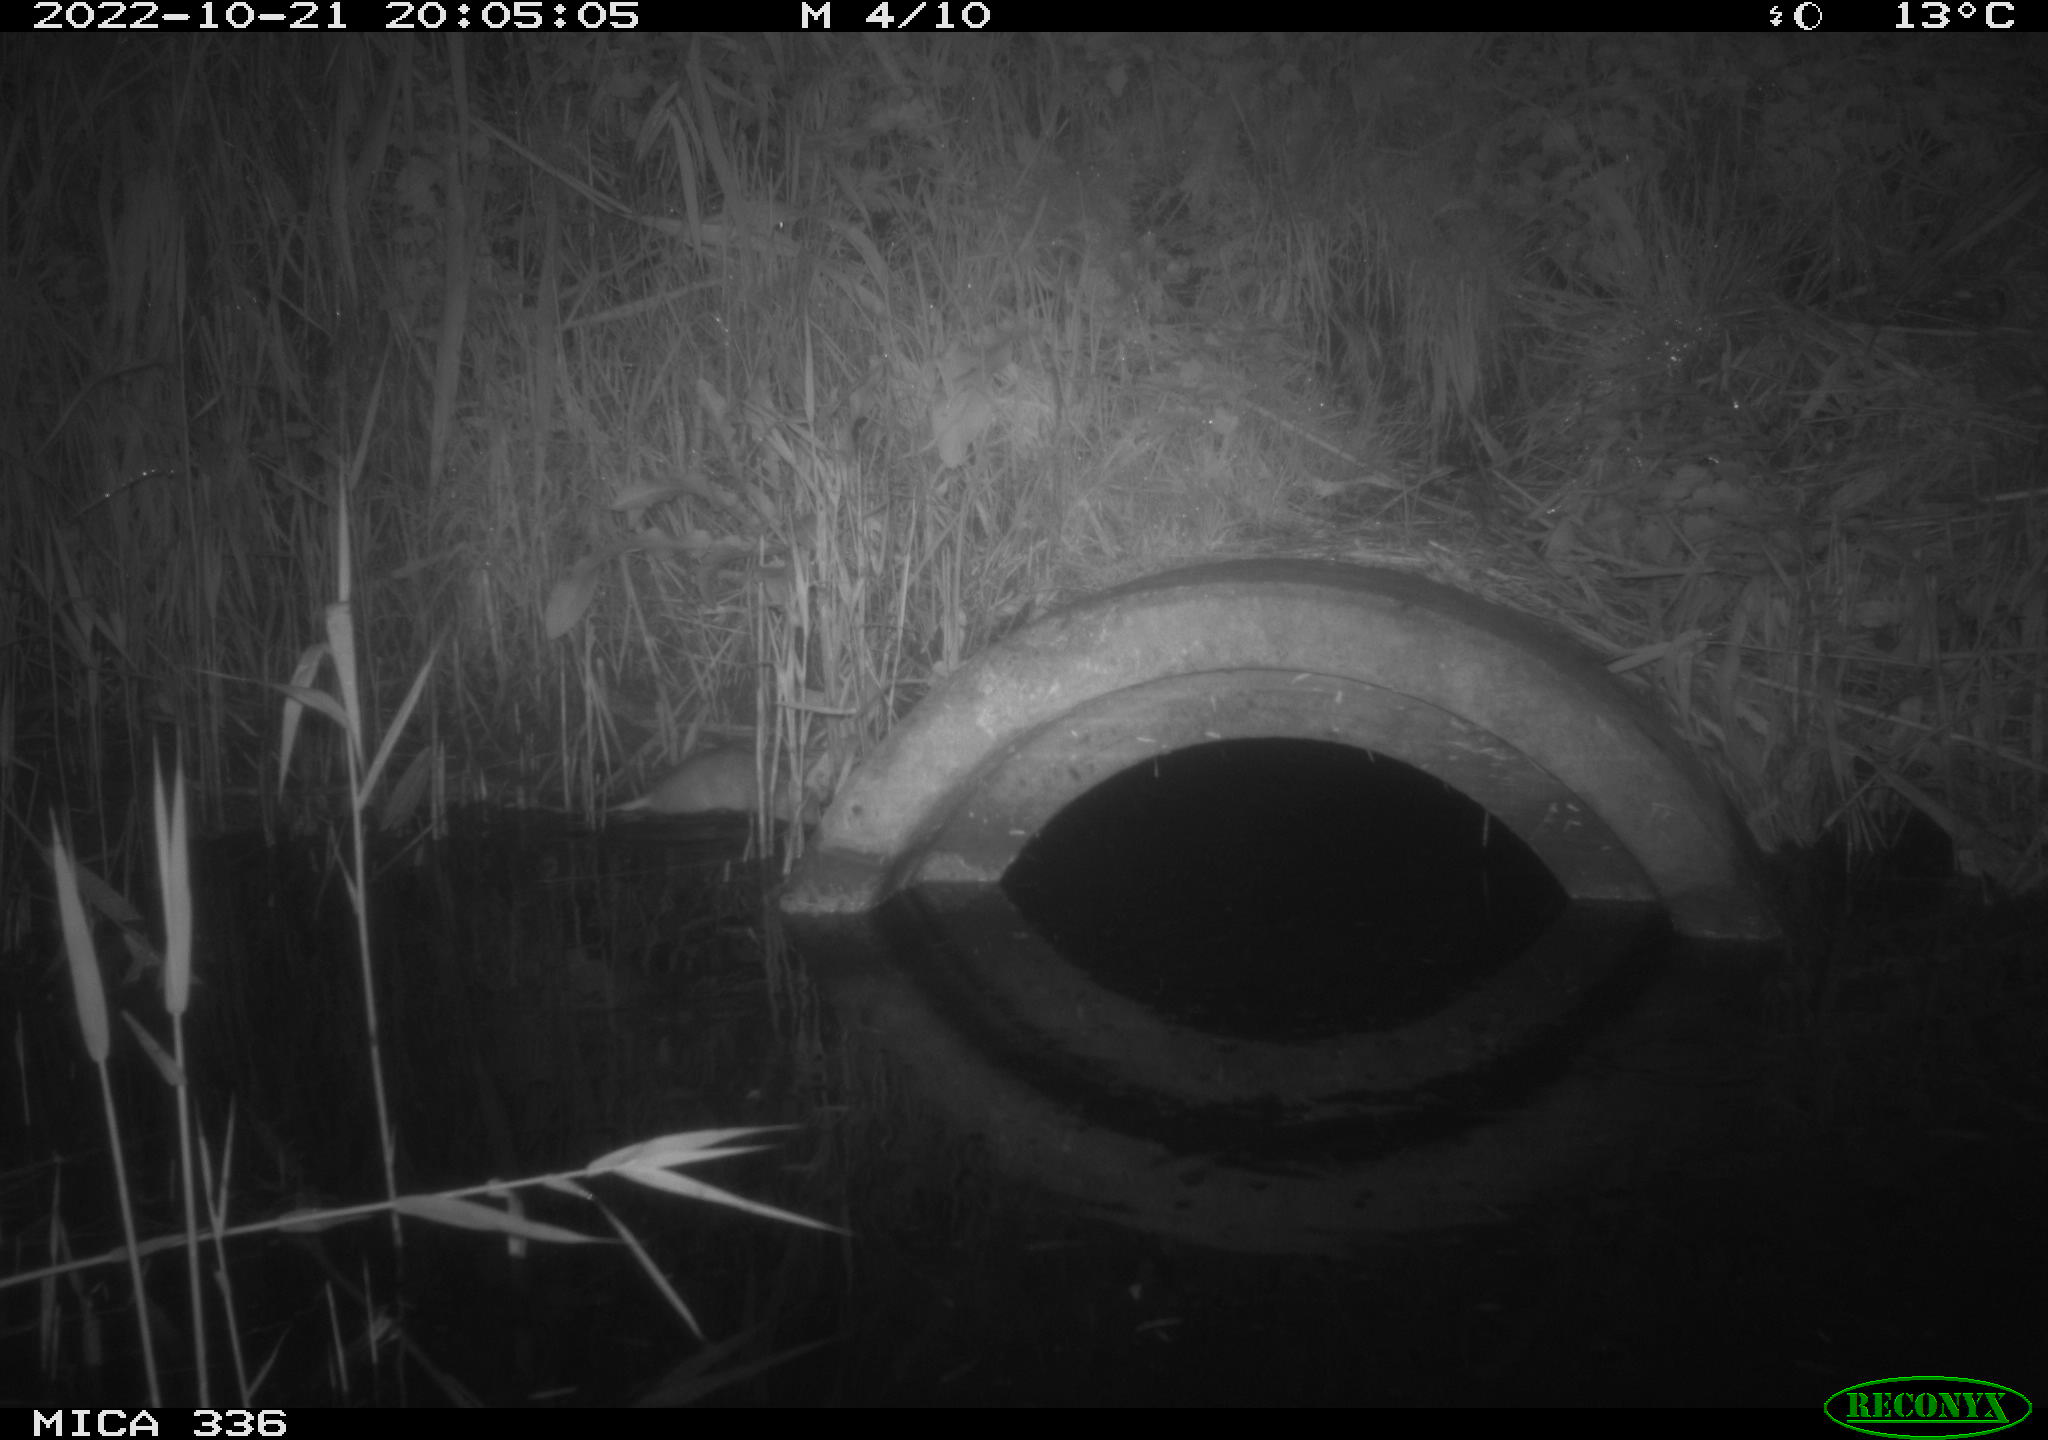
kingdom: Animalia
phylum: Chordata
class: Mammalia
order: Rodentia
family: Muridae
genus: Rattus
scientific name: Rattus norvegicus
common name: Brown rat
